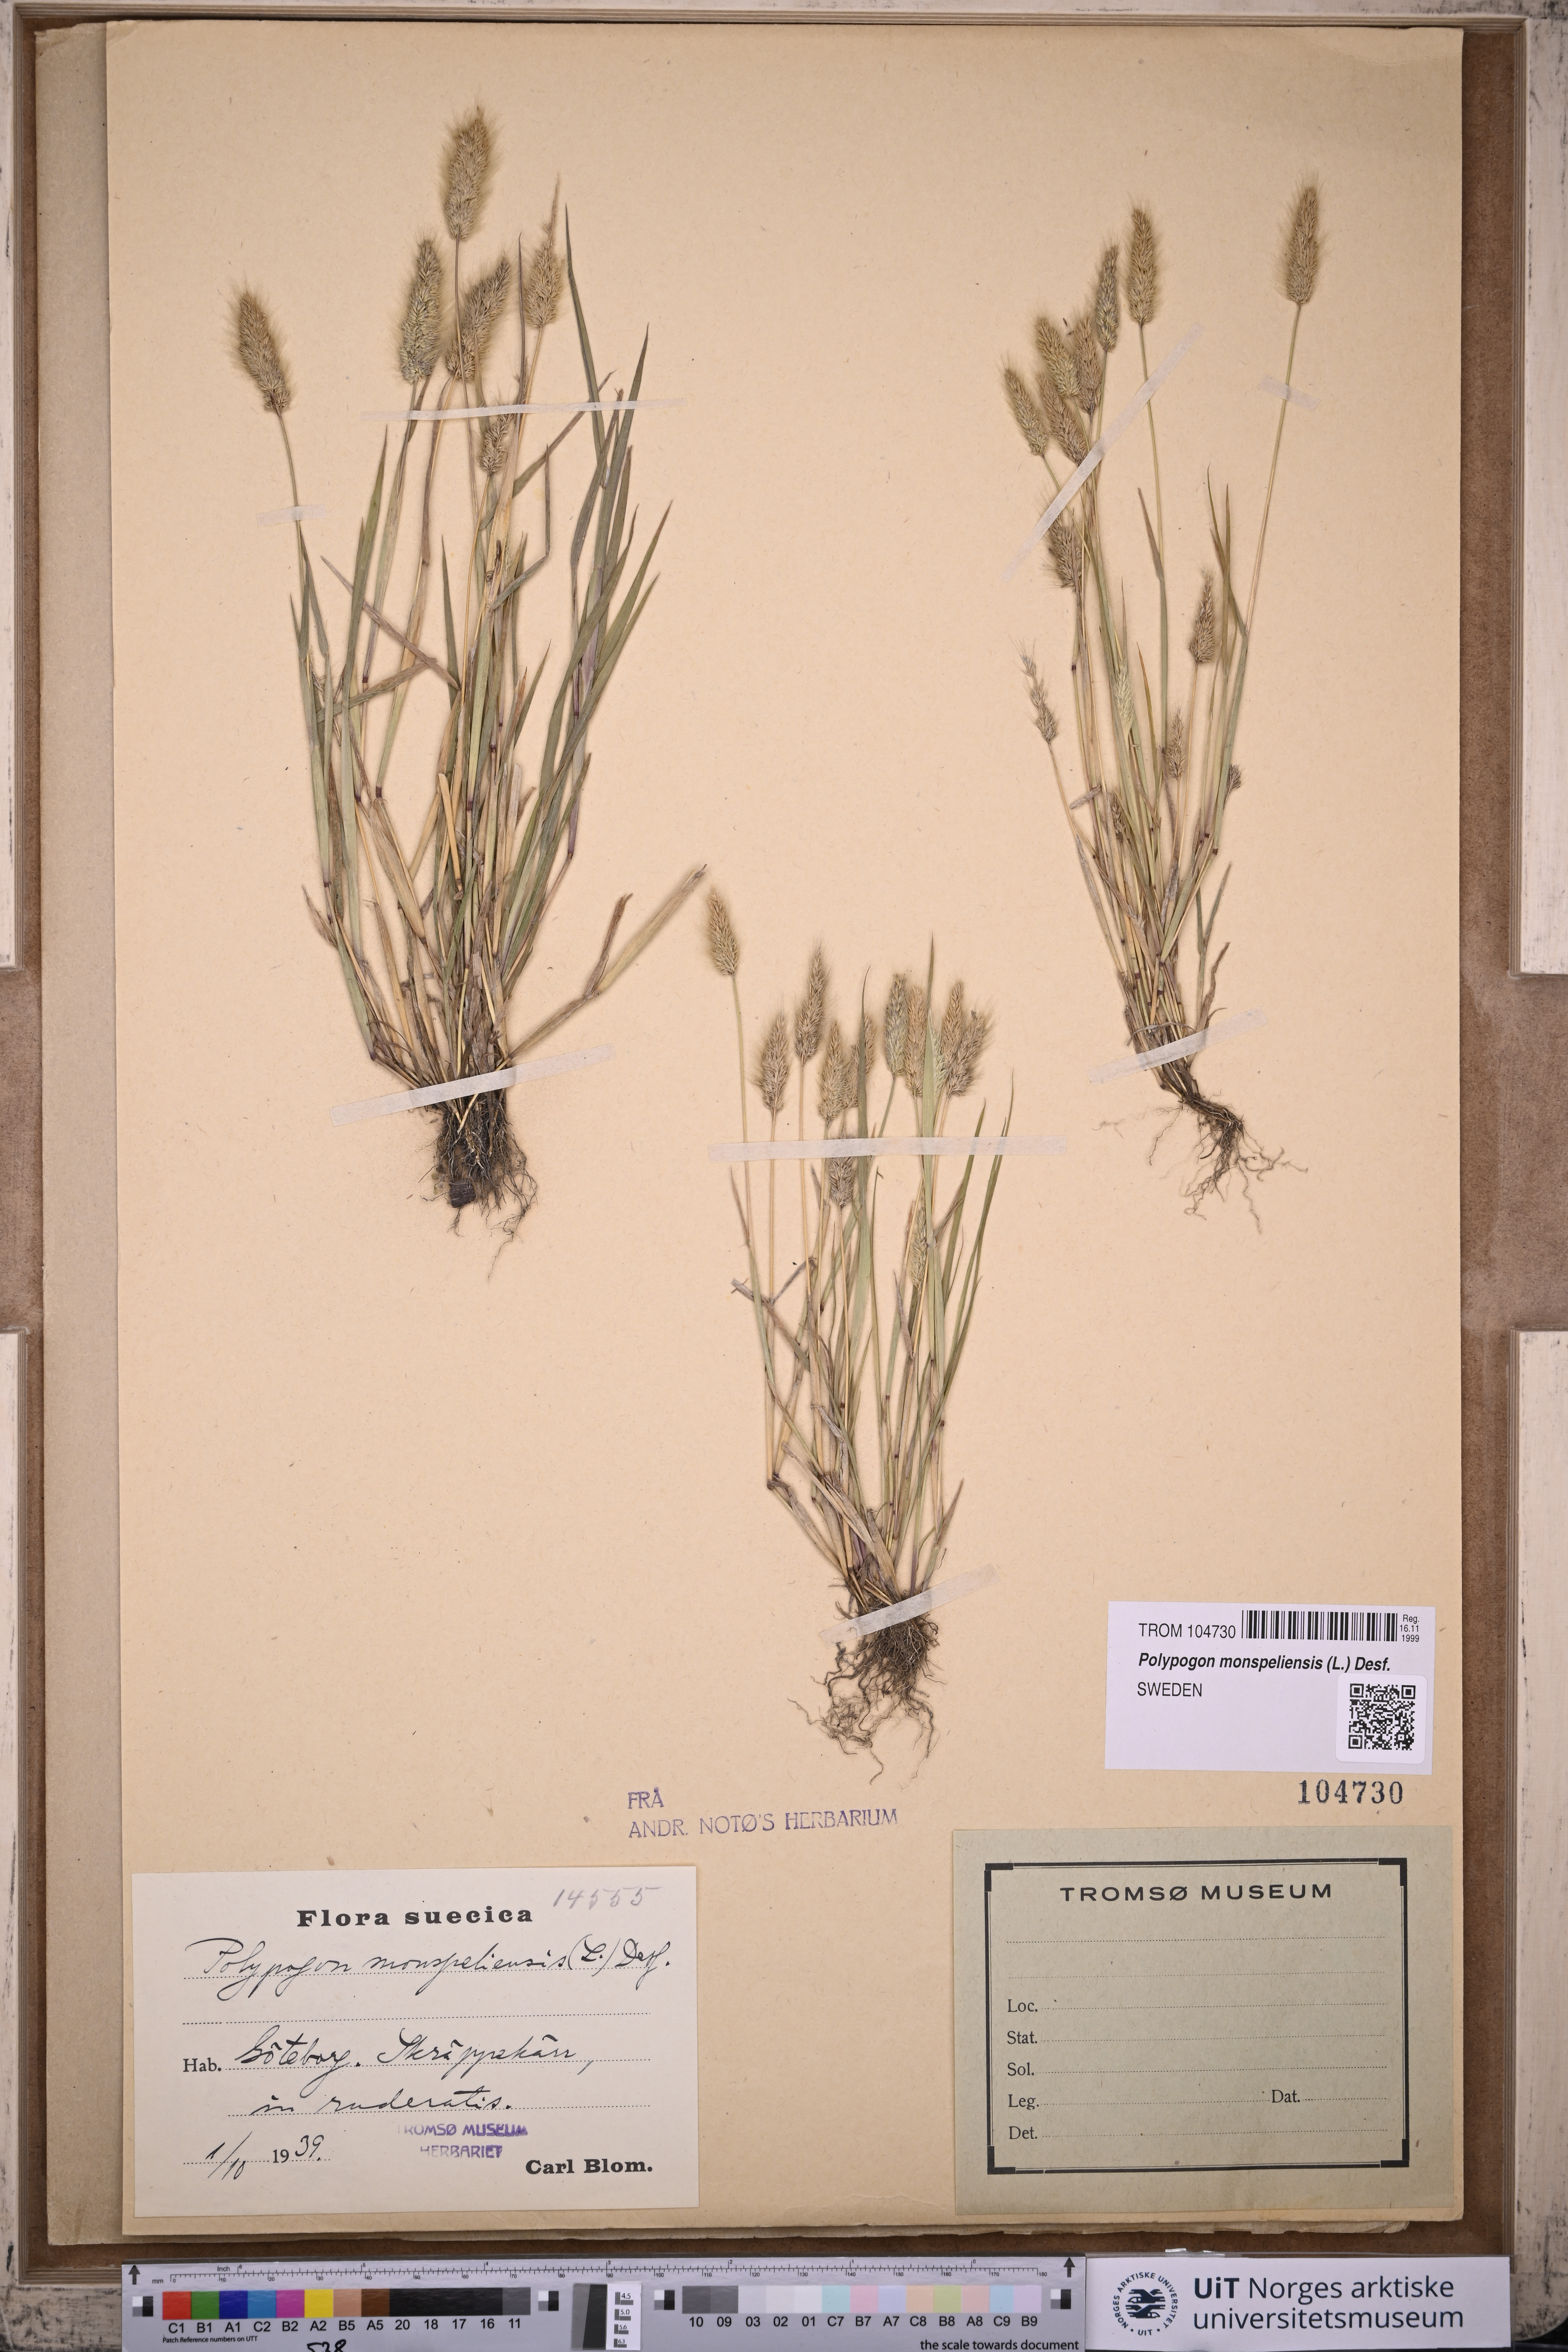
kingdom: Plantae
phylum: Tracheophyta
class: Liliopsida
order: Poales
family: Poaceae
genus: Polypogon
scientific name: Polypogon monspeliensis
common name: Annual rabbitsfoot grass
